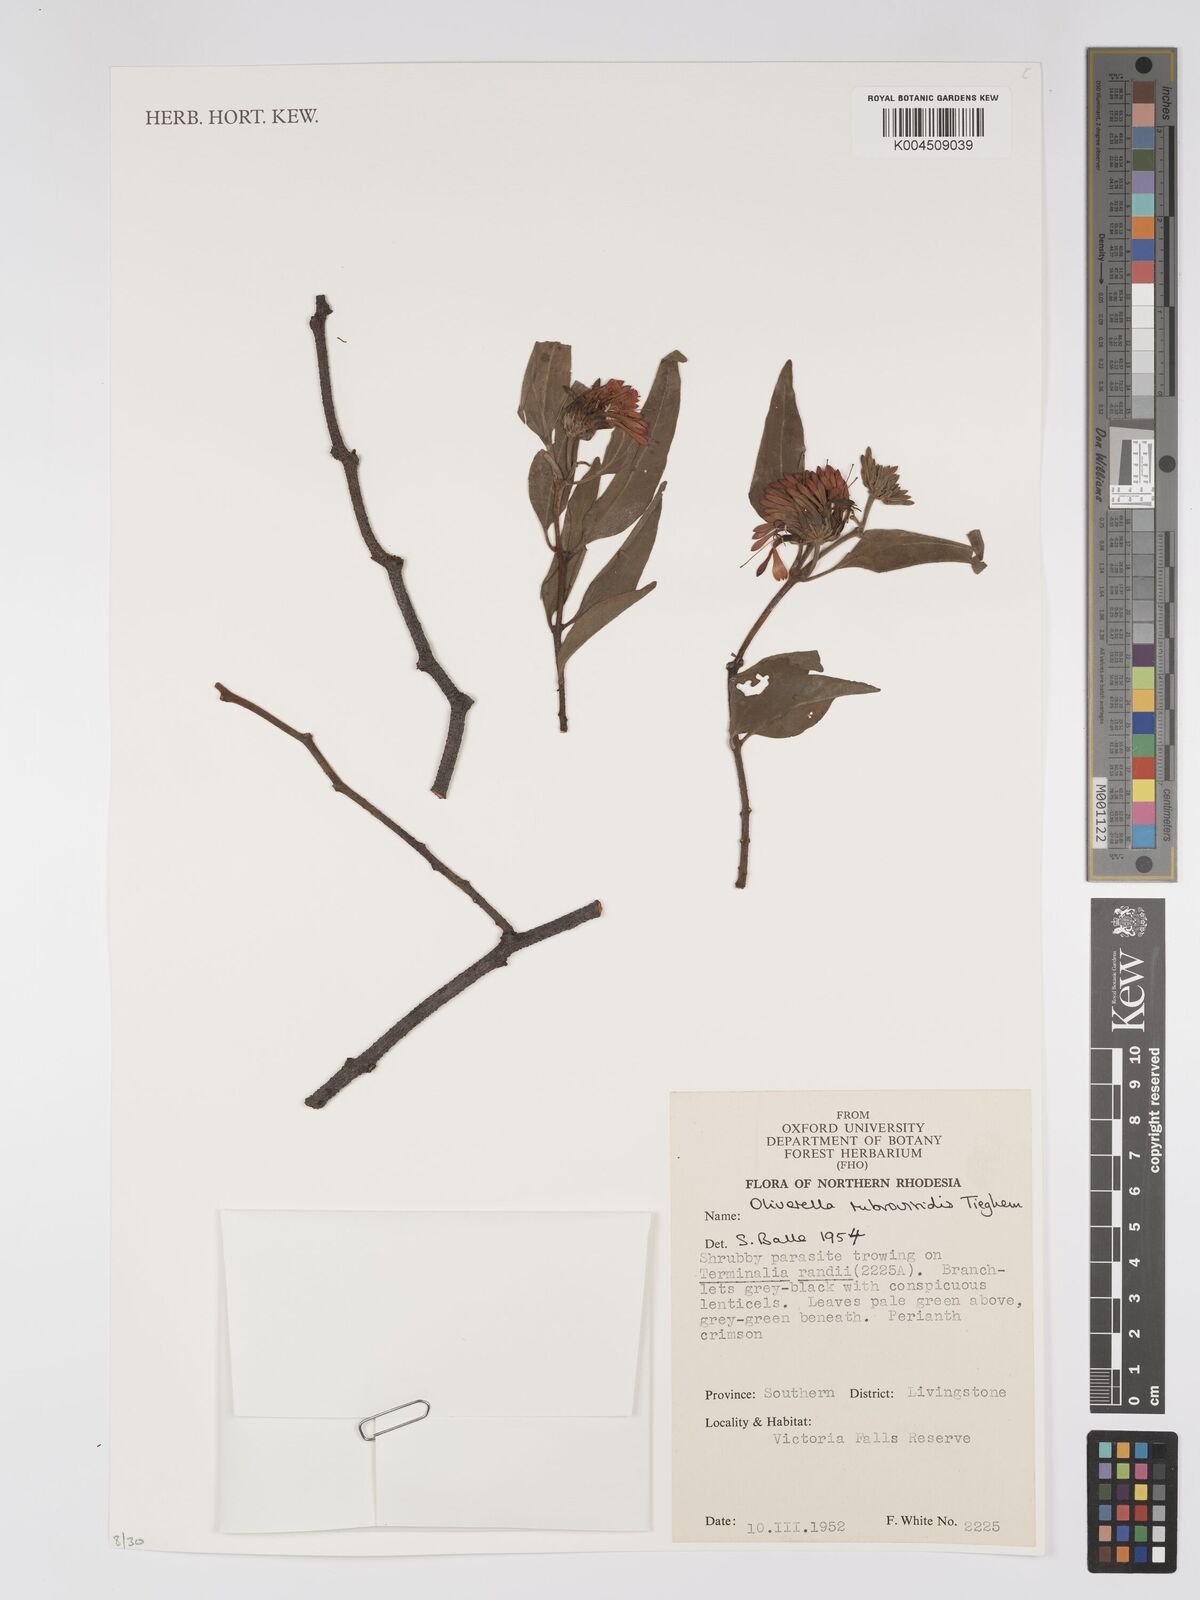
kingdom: Plantae
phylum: Tracheophyta
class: Magnoliopsida
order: Santalales
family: Loranthaceae
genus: Oliverella
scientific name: Oliverella rubroviridis
